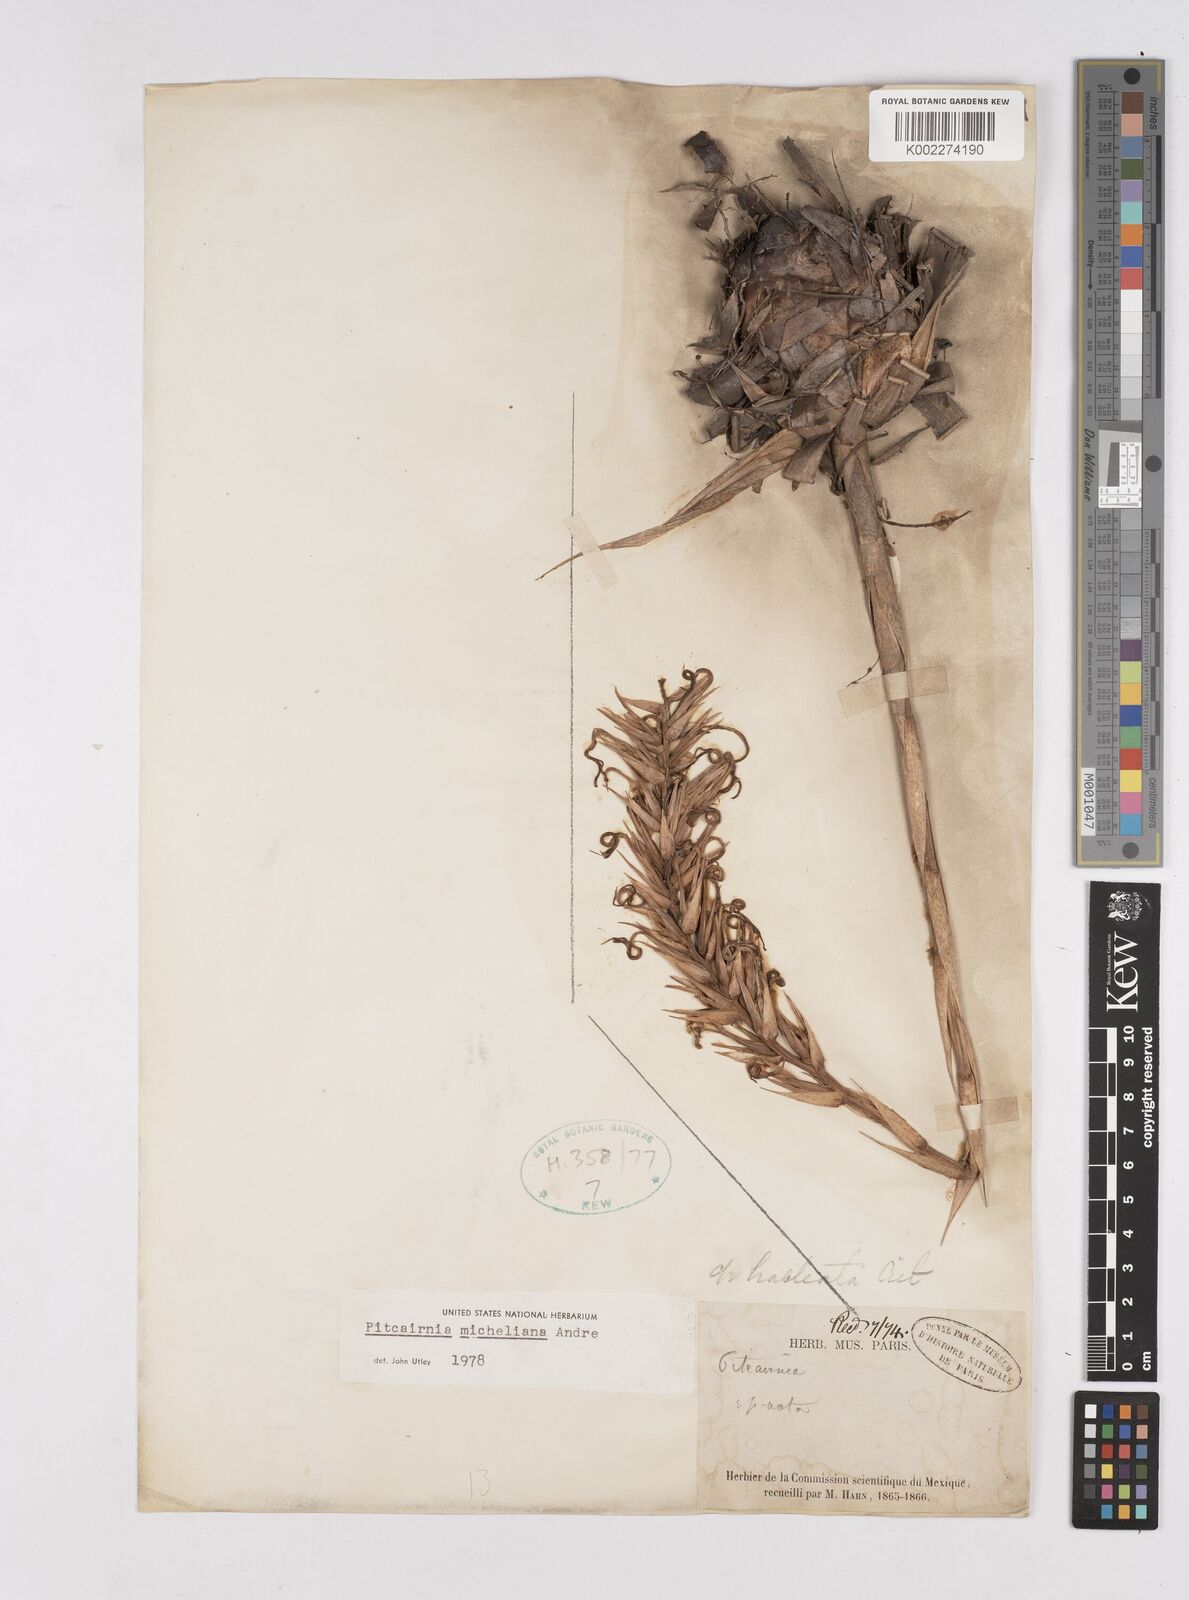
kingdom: Plantae
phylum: Tracheophyta
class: Liliopsida
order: Poales
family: Bromeliaceae
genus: Pitcairnia
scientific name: Pitcairnia micheliana
